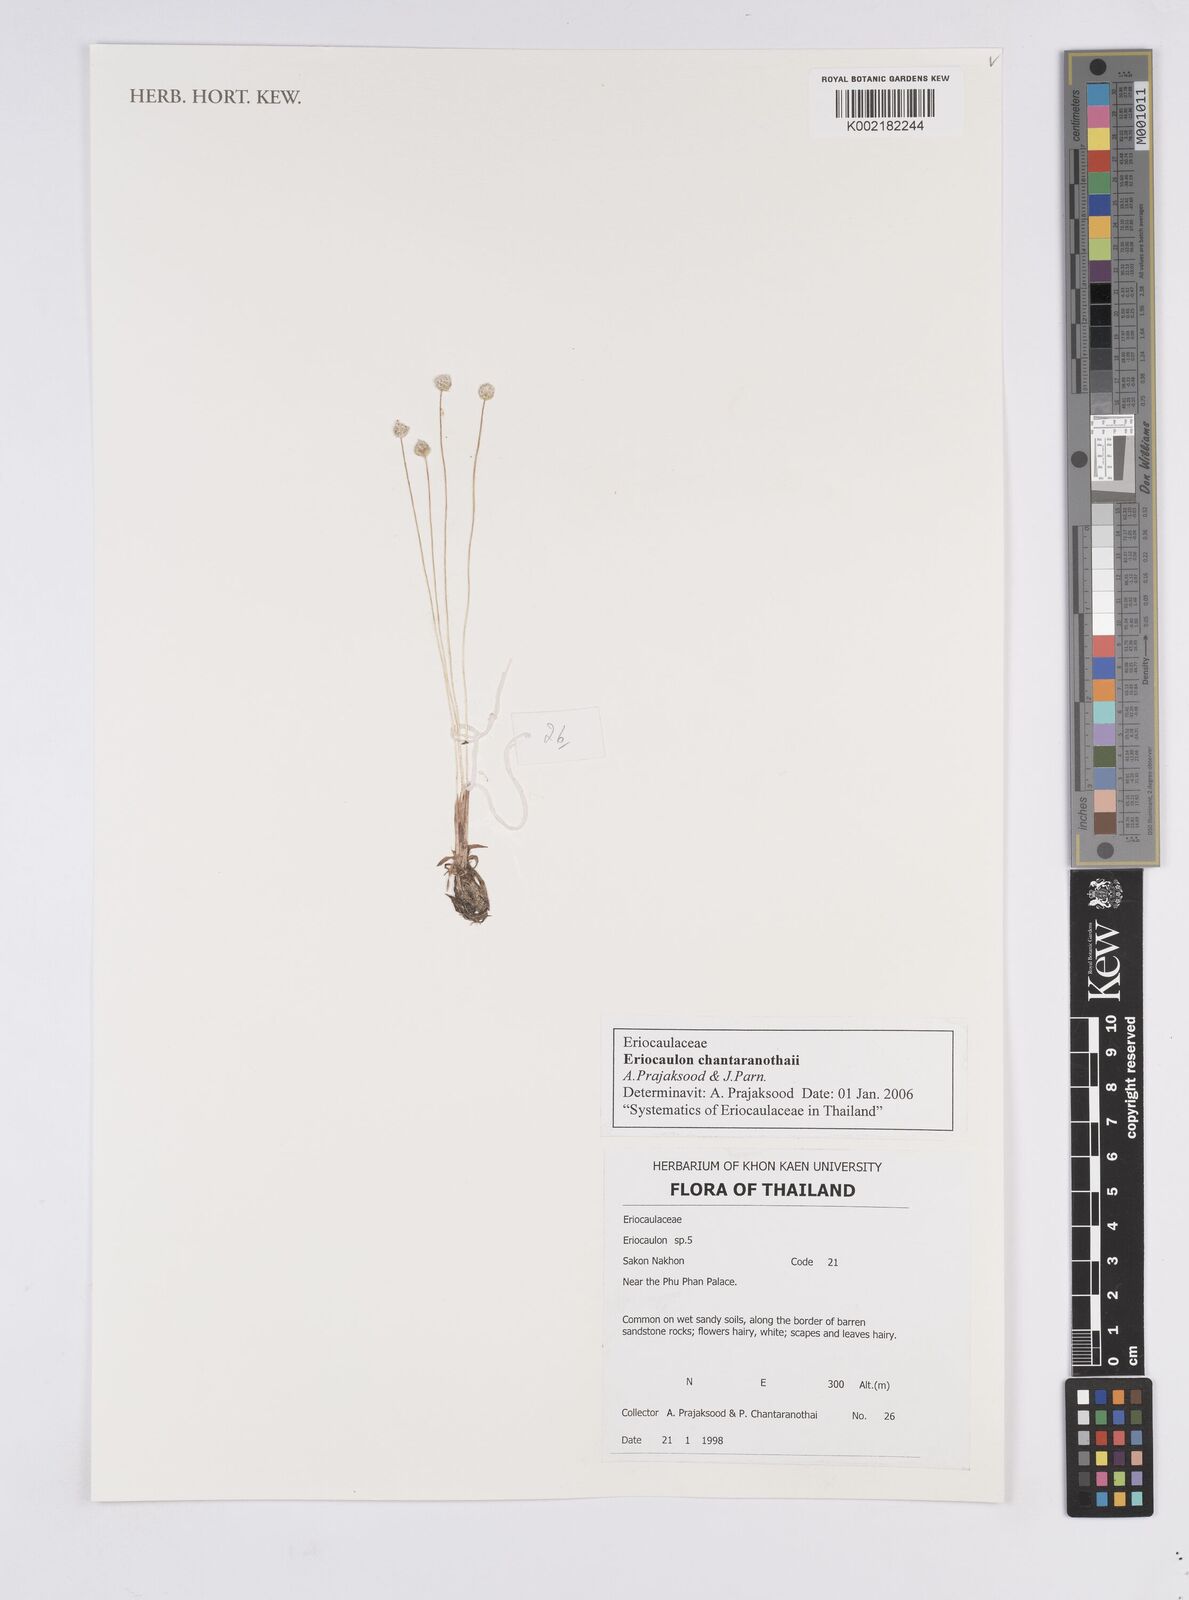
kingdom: Plantae
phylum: Tracheophyta
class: Liliopsida
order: Poales
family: Eriocaulaceae
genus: Eriocaulon
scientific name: Eriocaulon chantaranothaii
